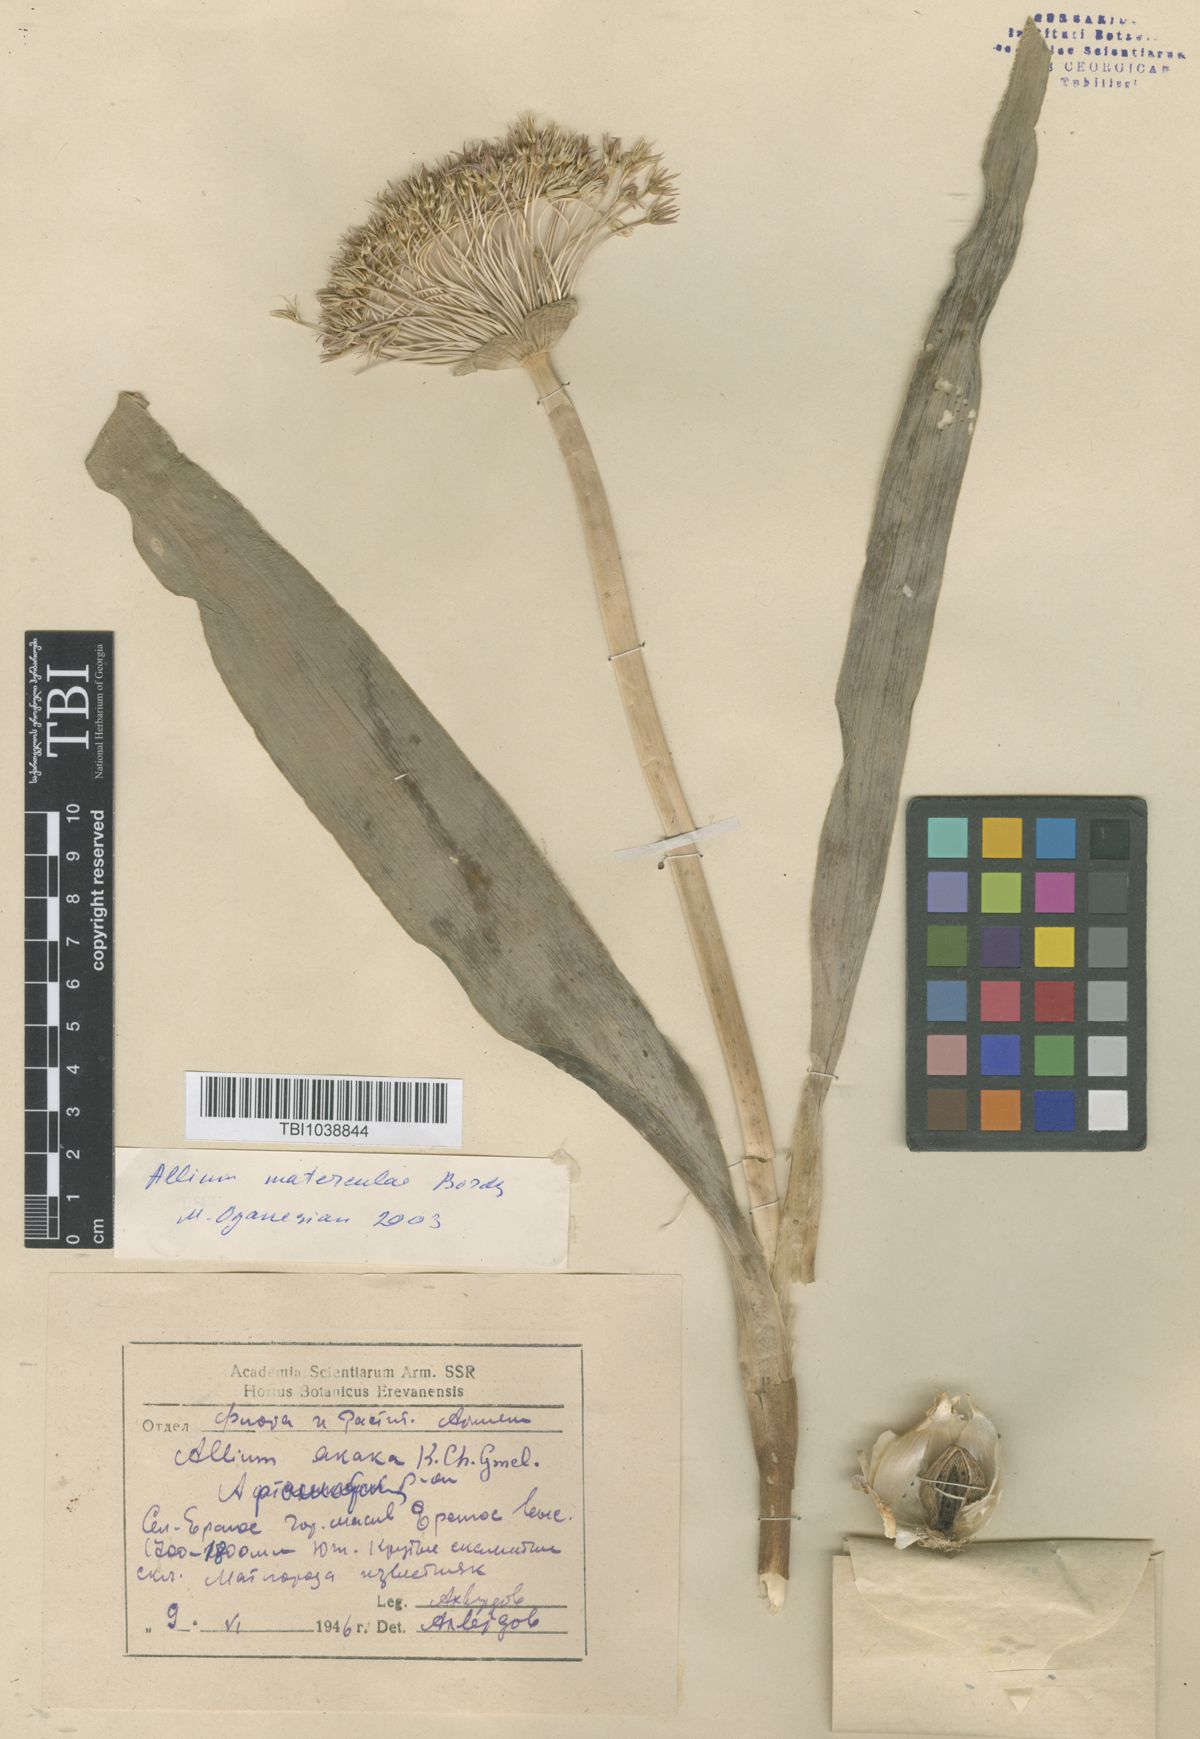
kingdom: Plantae
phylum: Tracheophyta
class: Liliopsida
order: Asparagales
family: Amaryllidaceae
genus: Allium
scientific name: Allium materculae
